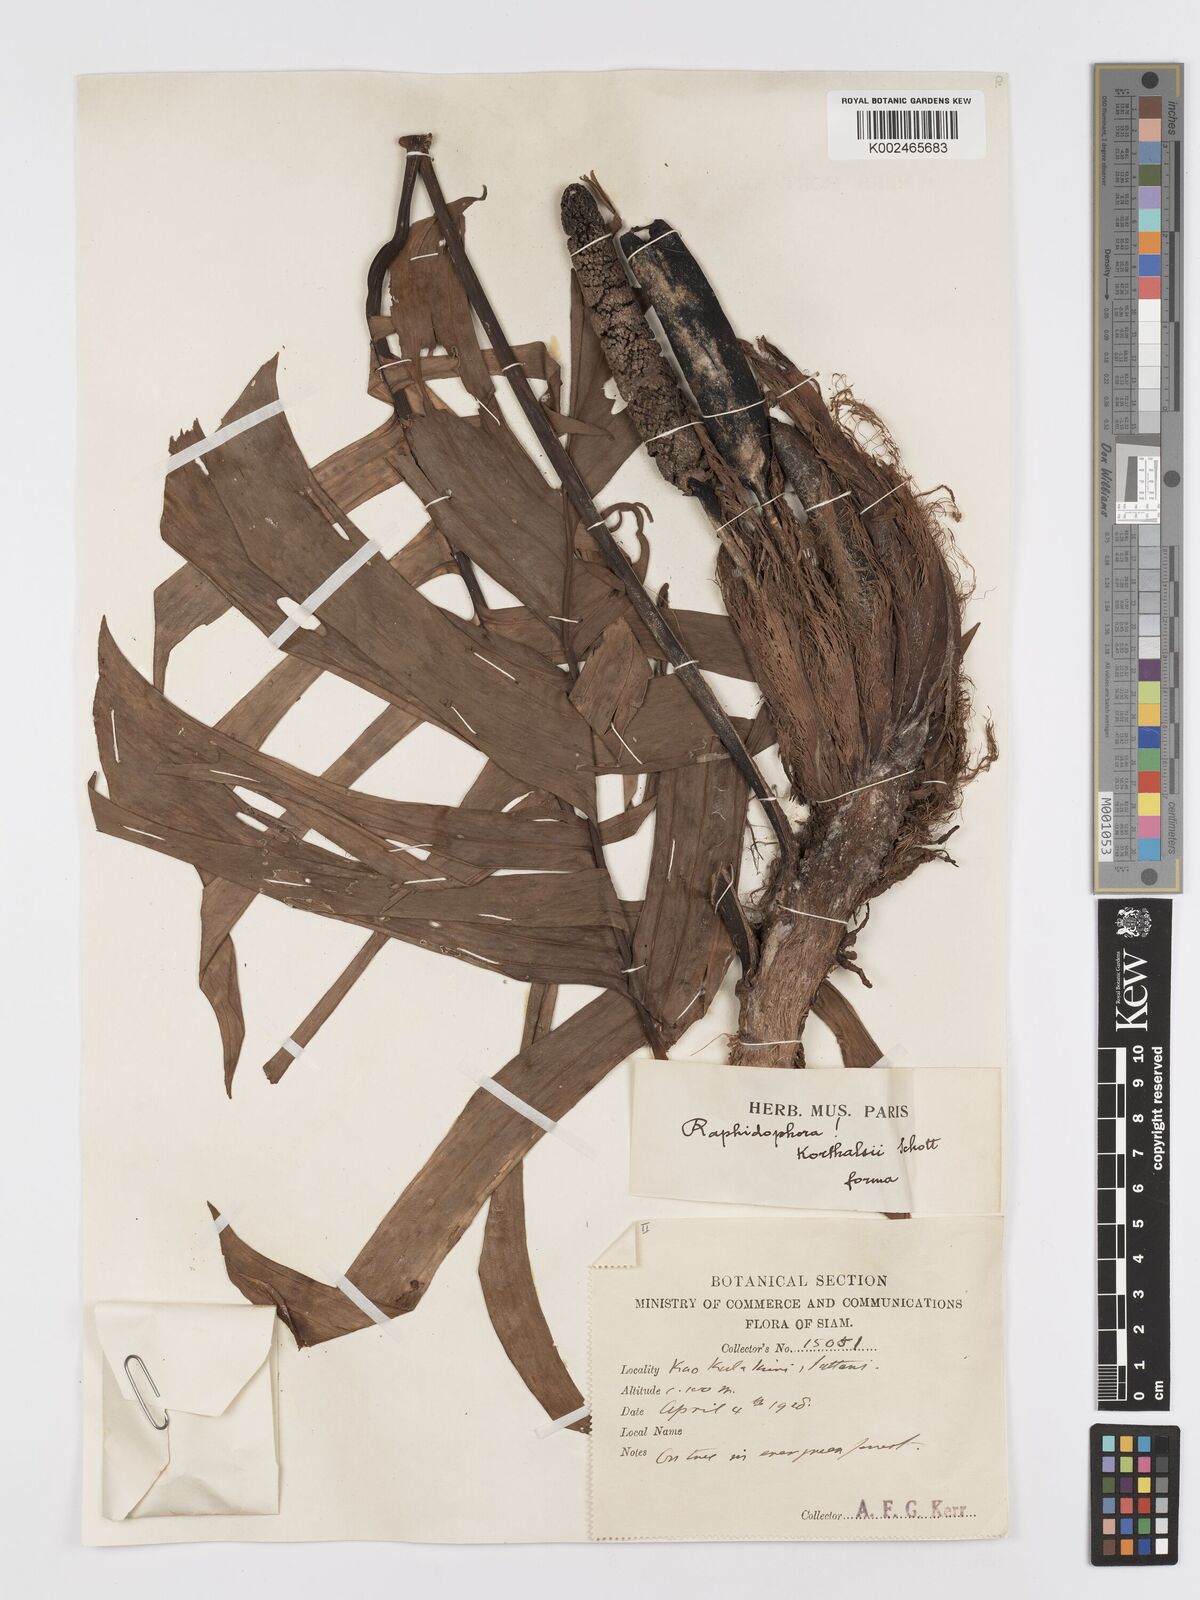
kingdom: Plantae
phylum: Tracheophyta
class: Liliopsida
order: Alismatales
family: Araceae
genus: Rhaphidophora
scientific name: Rhaphidophora korthalsii
